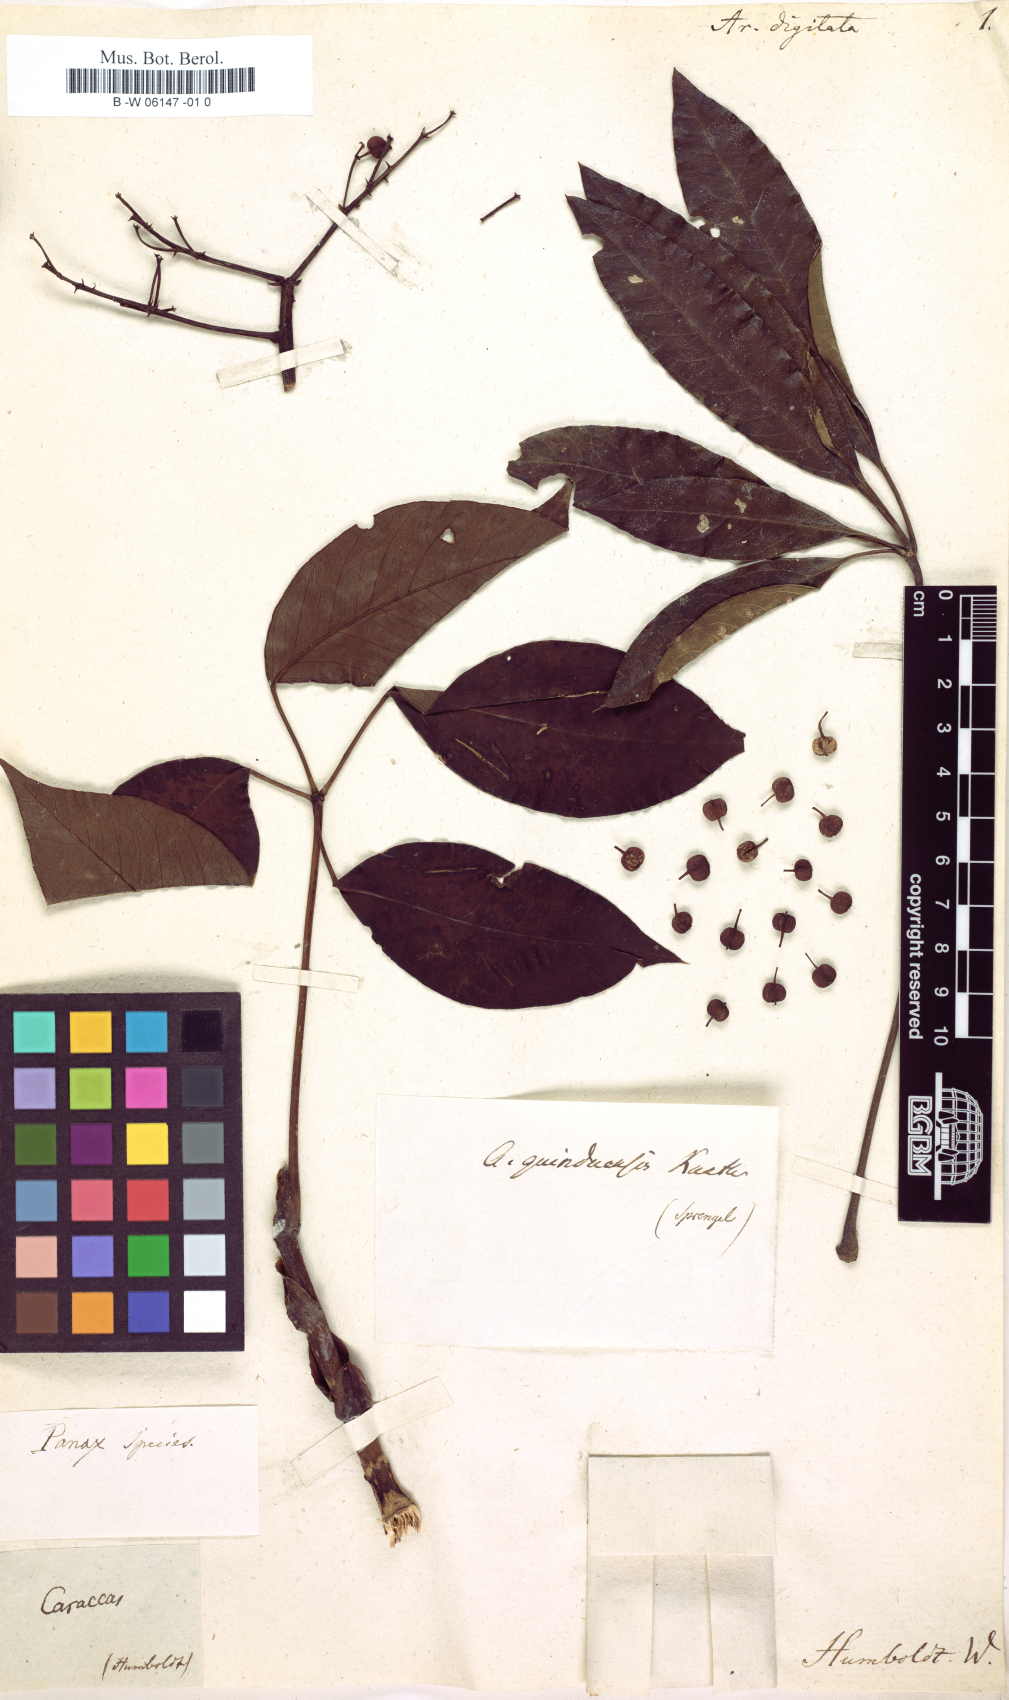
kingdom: Plantae
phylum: Tracheophyta
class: Magnoliopsida
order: Apiales
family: Araliaceae
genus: Sciodaphyllum
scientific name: Sciodaphyllum glabratum
